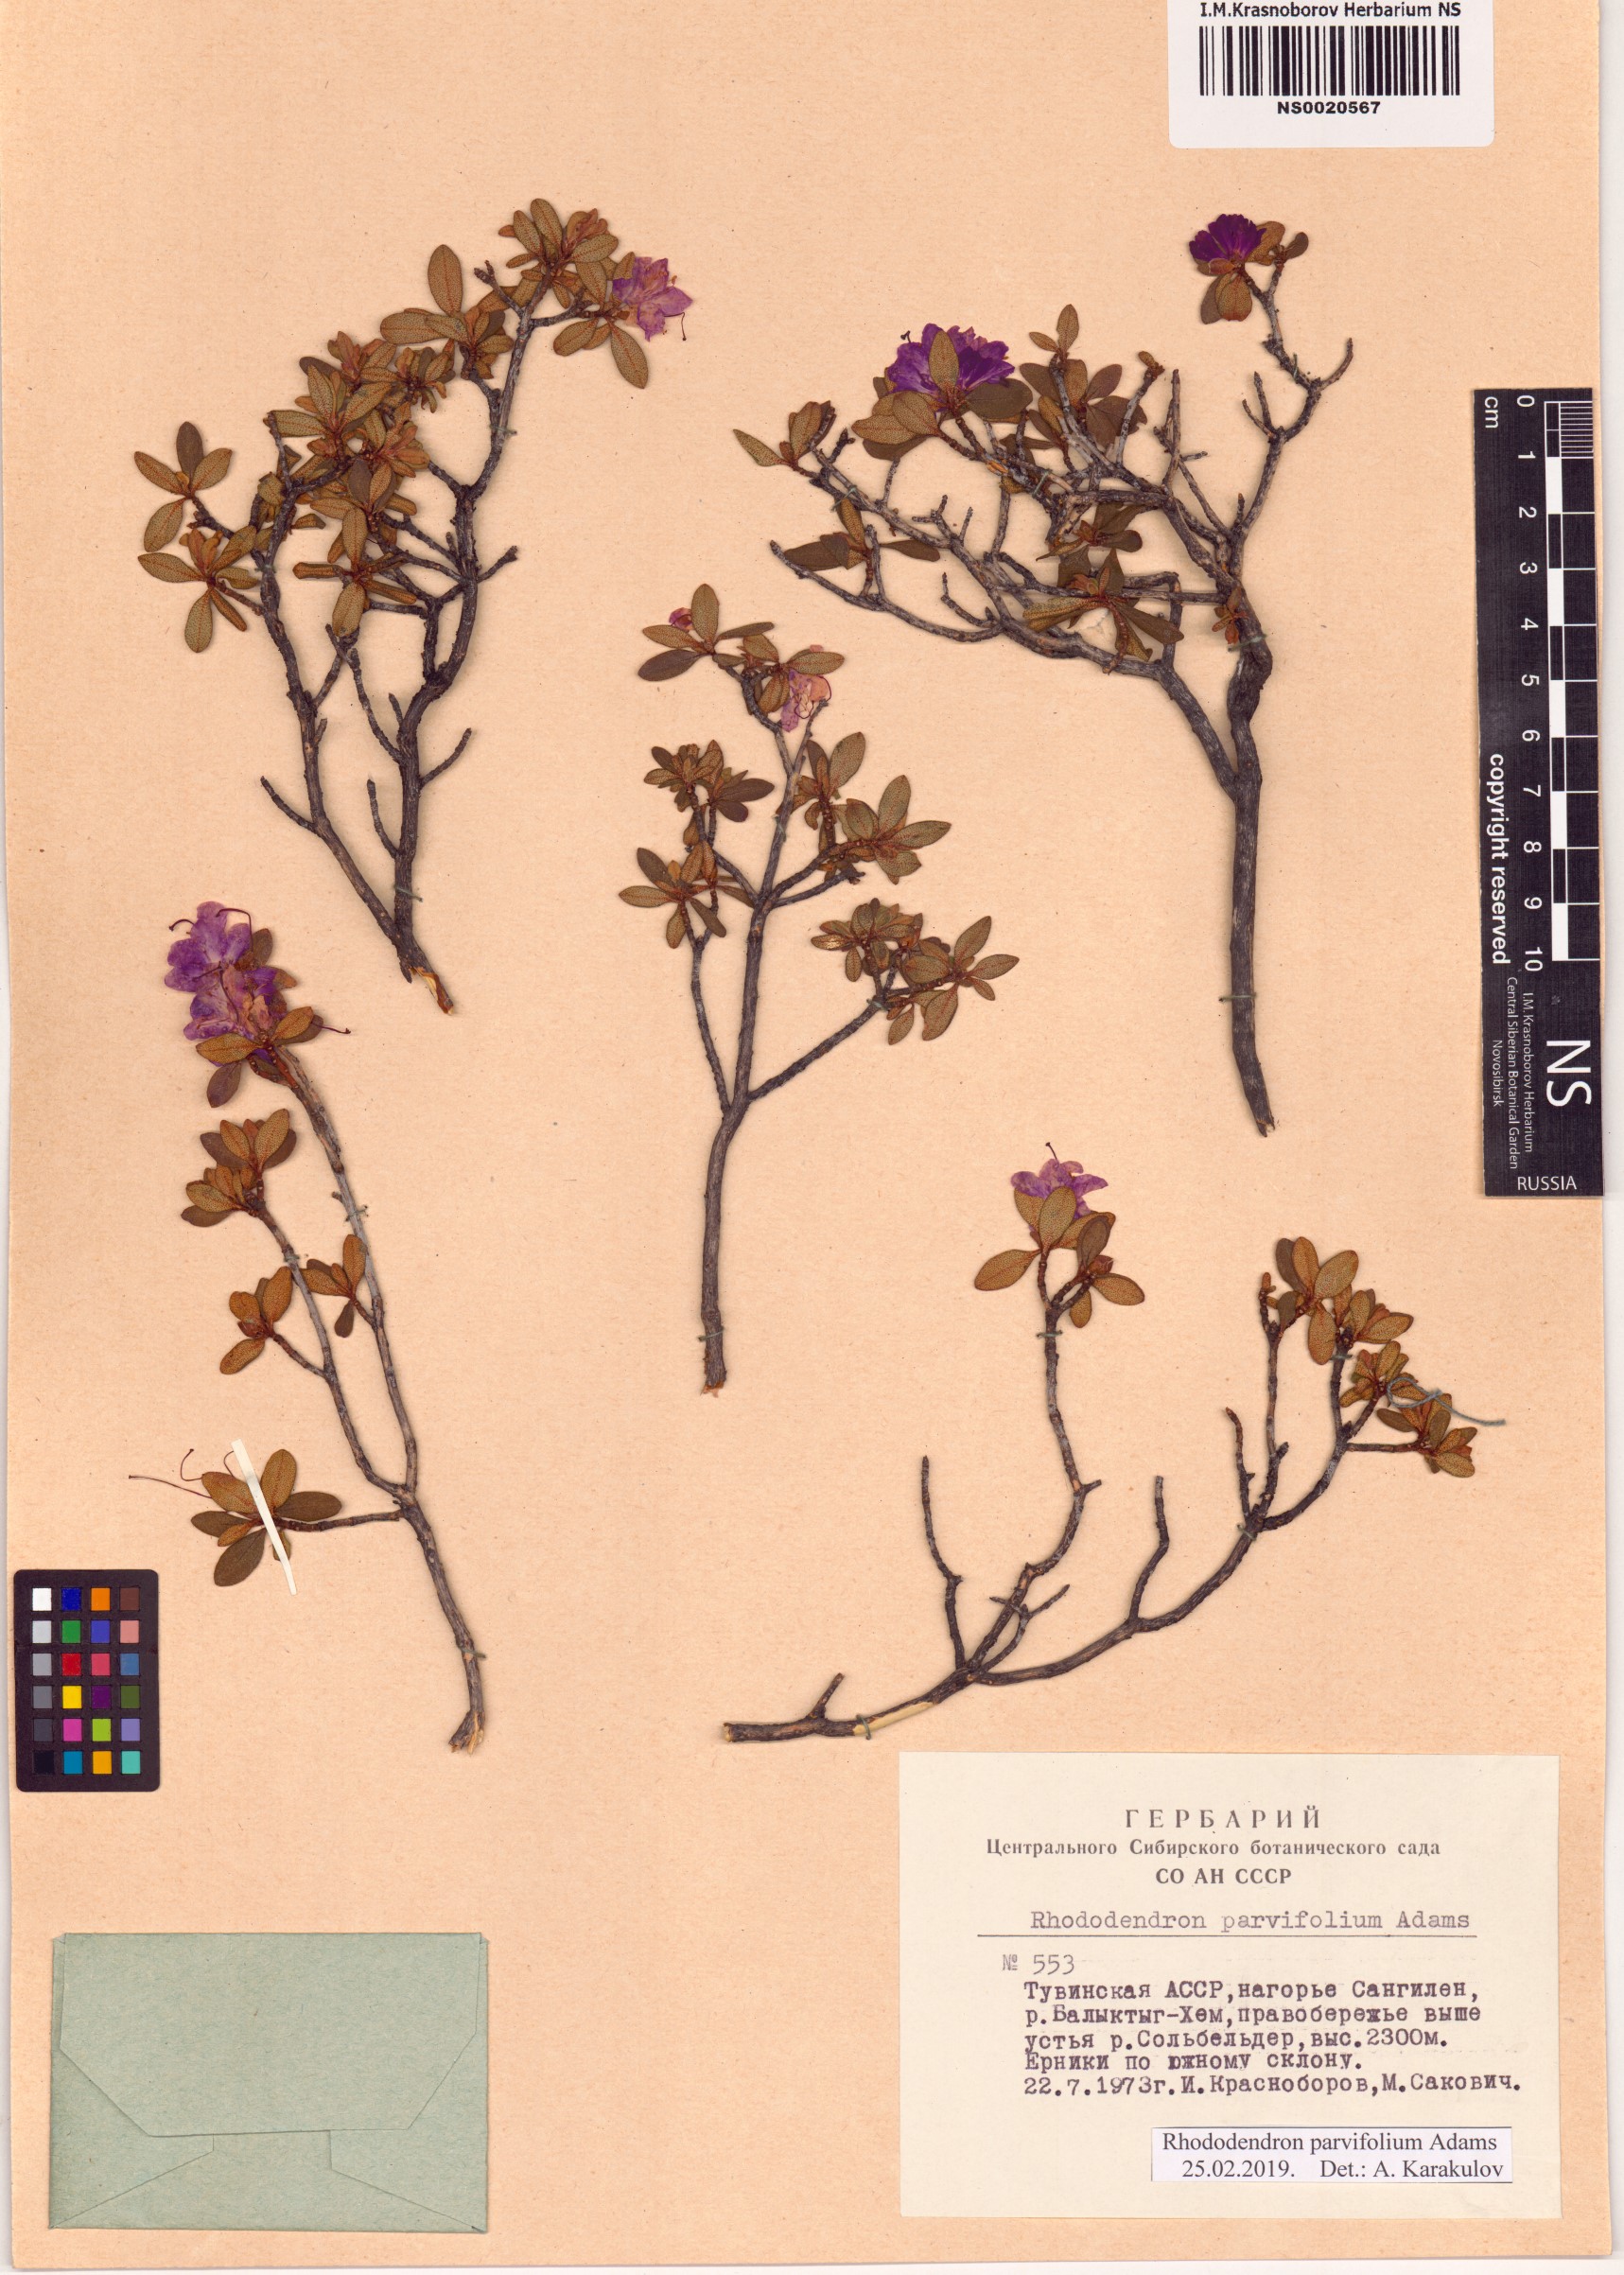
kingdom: Plantae
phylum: Tracheophyta
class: Magnoliopsida
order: Ericales
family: Ericaceae
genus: Rhododendron
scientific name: Rhododendron parvifolium
